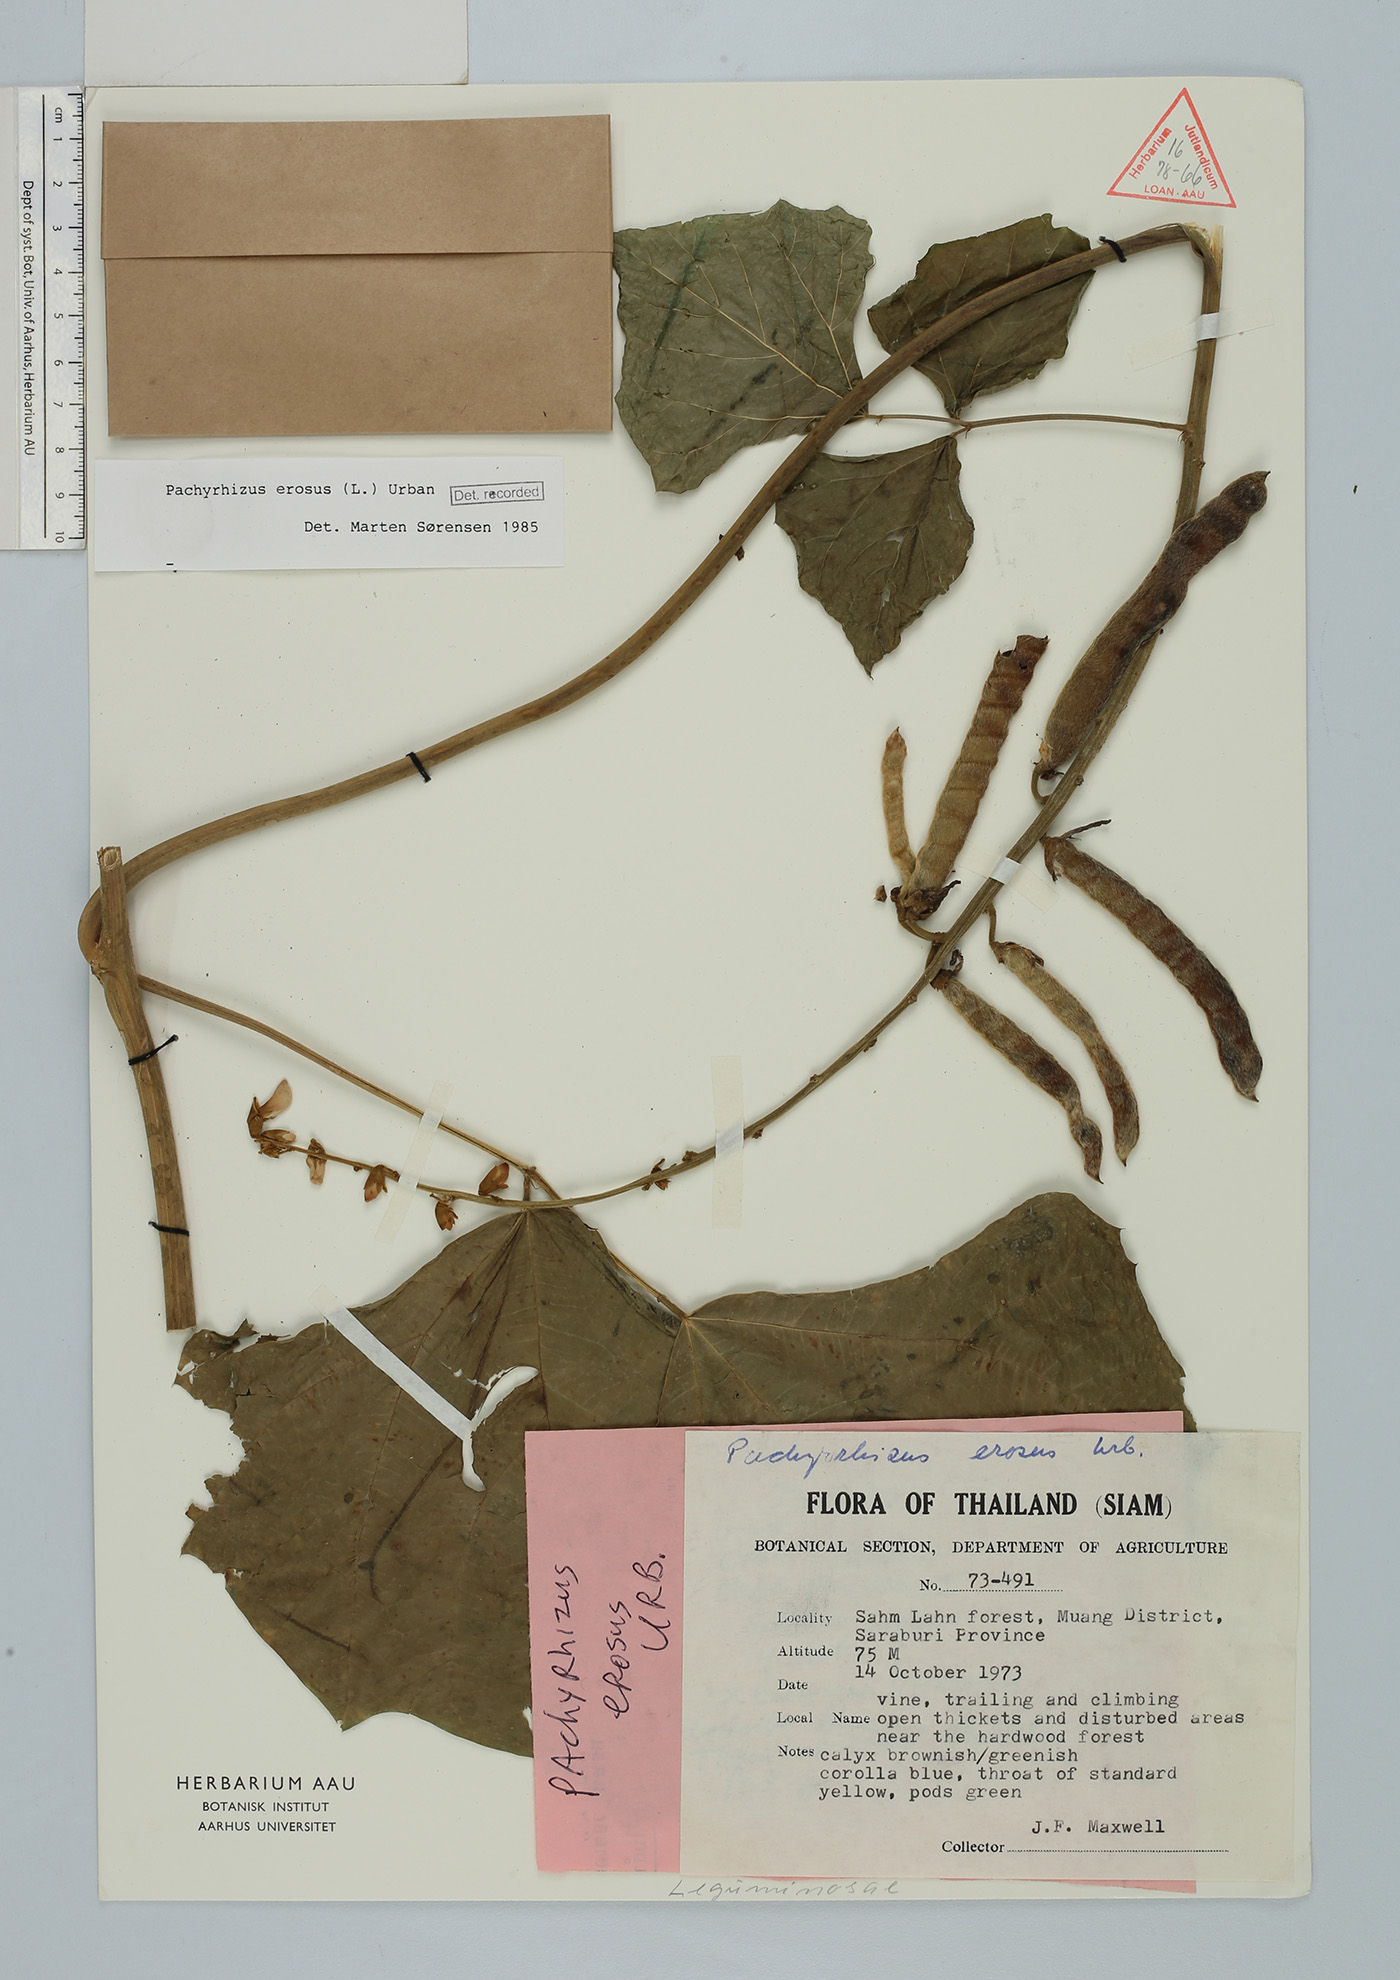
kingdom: Plantae
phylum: Tracheophyta
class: Magnoliopsida
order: Fabales
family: Fabaceae
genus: Pachyrhizus
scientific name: Pachyrhizus erosus
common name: Yam bean
